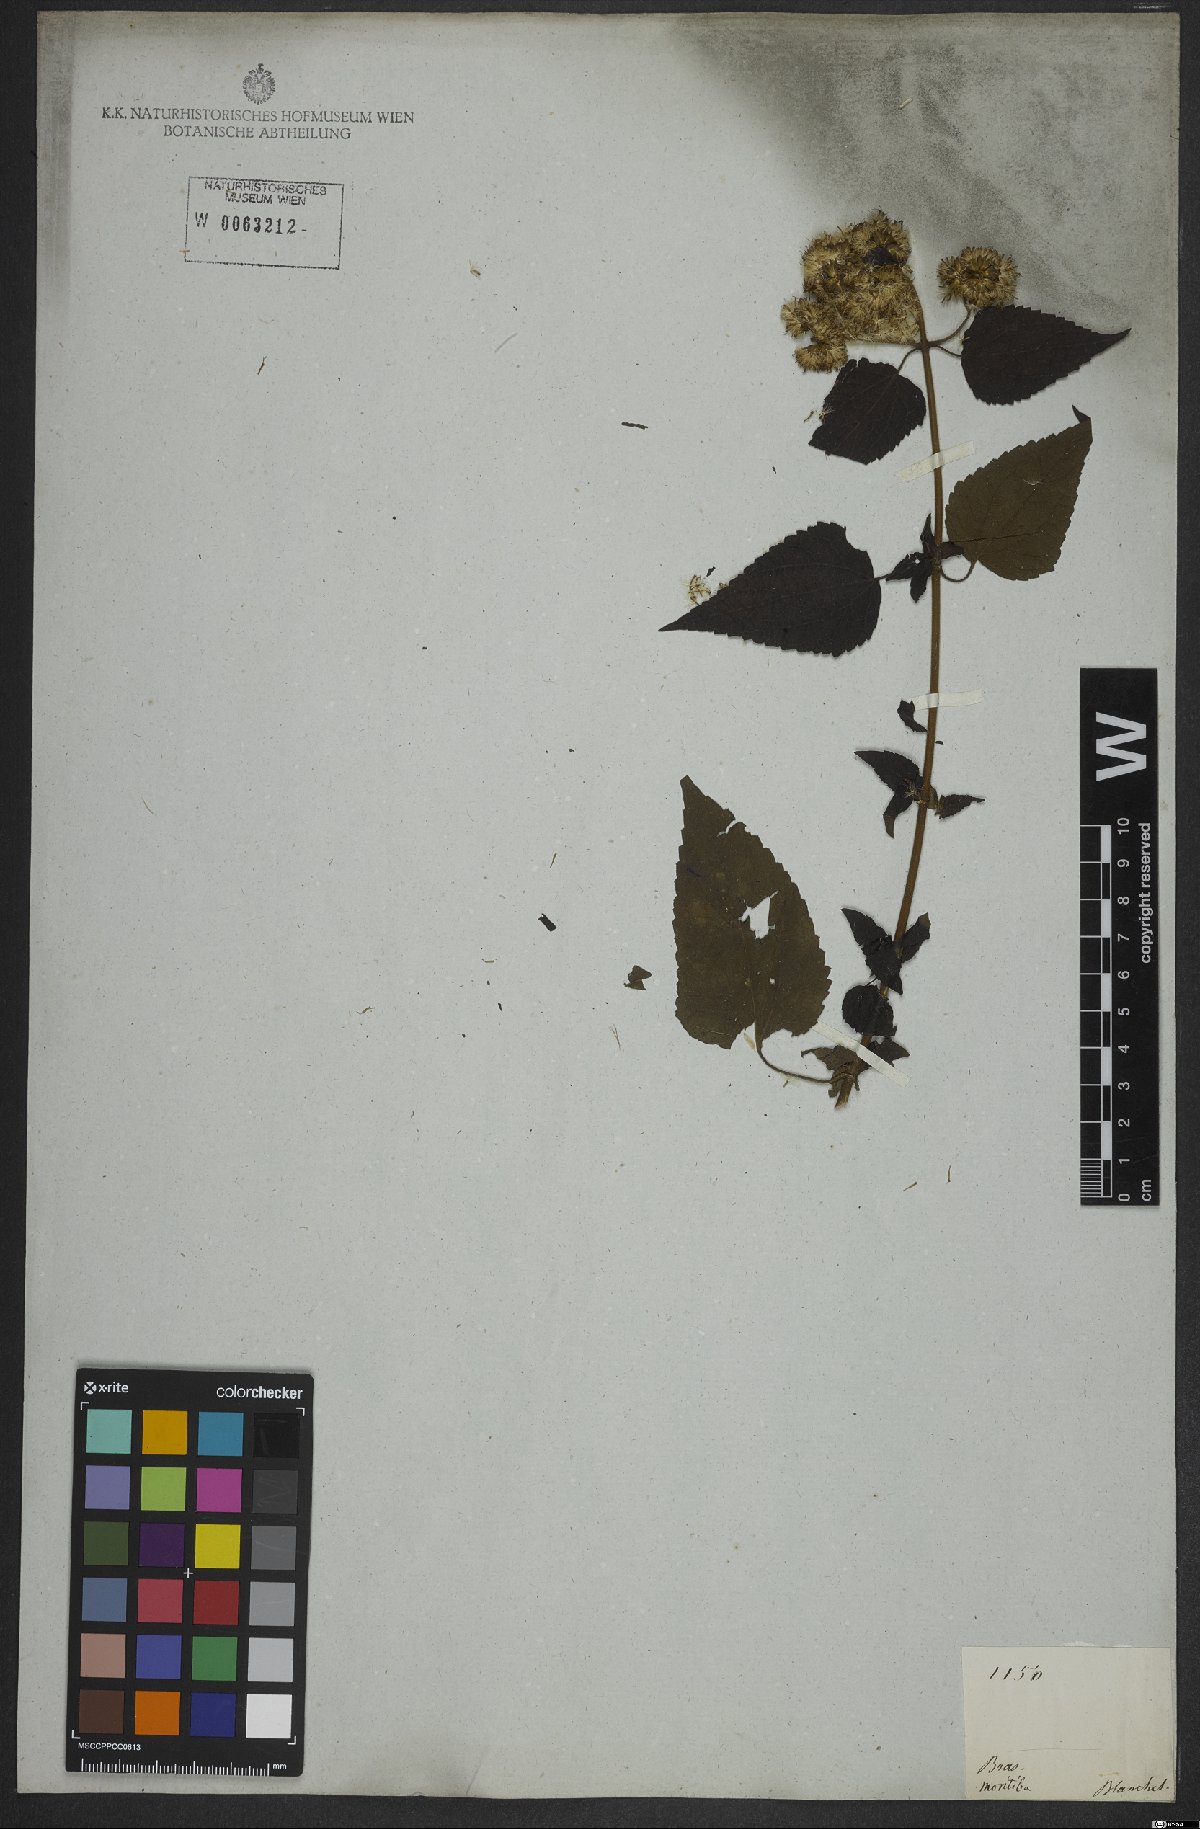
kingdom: Plantae
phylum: Tracheophyta
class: Magnoliopsida
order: Asterales
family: Asteraceae
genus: Austroeupatorium
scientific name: Austroeupatorium inulifolium
